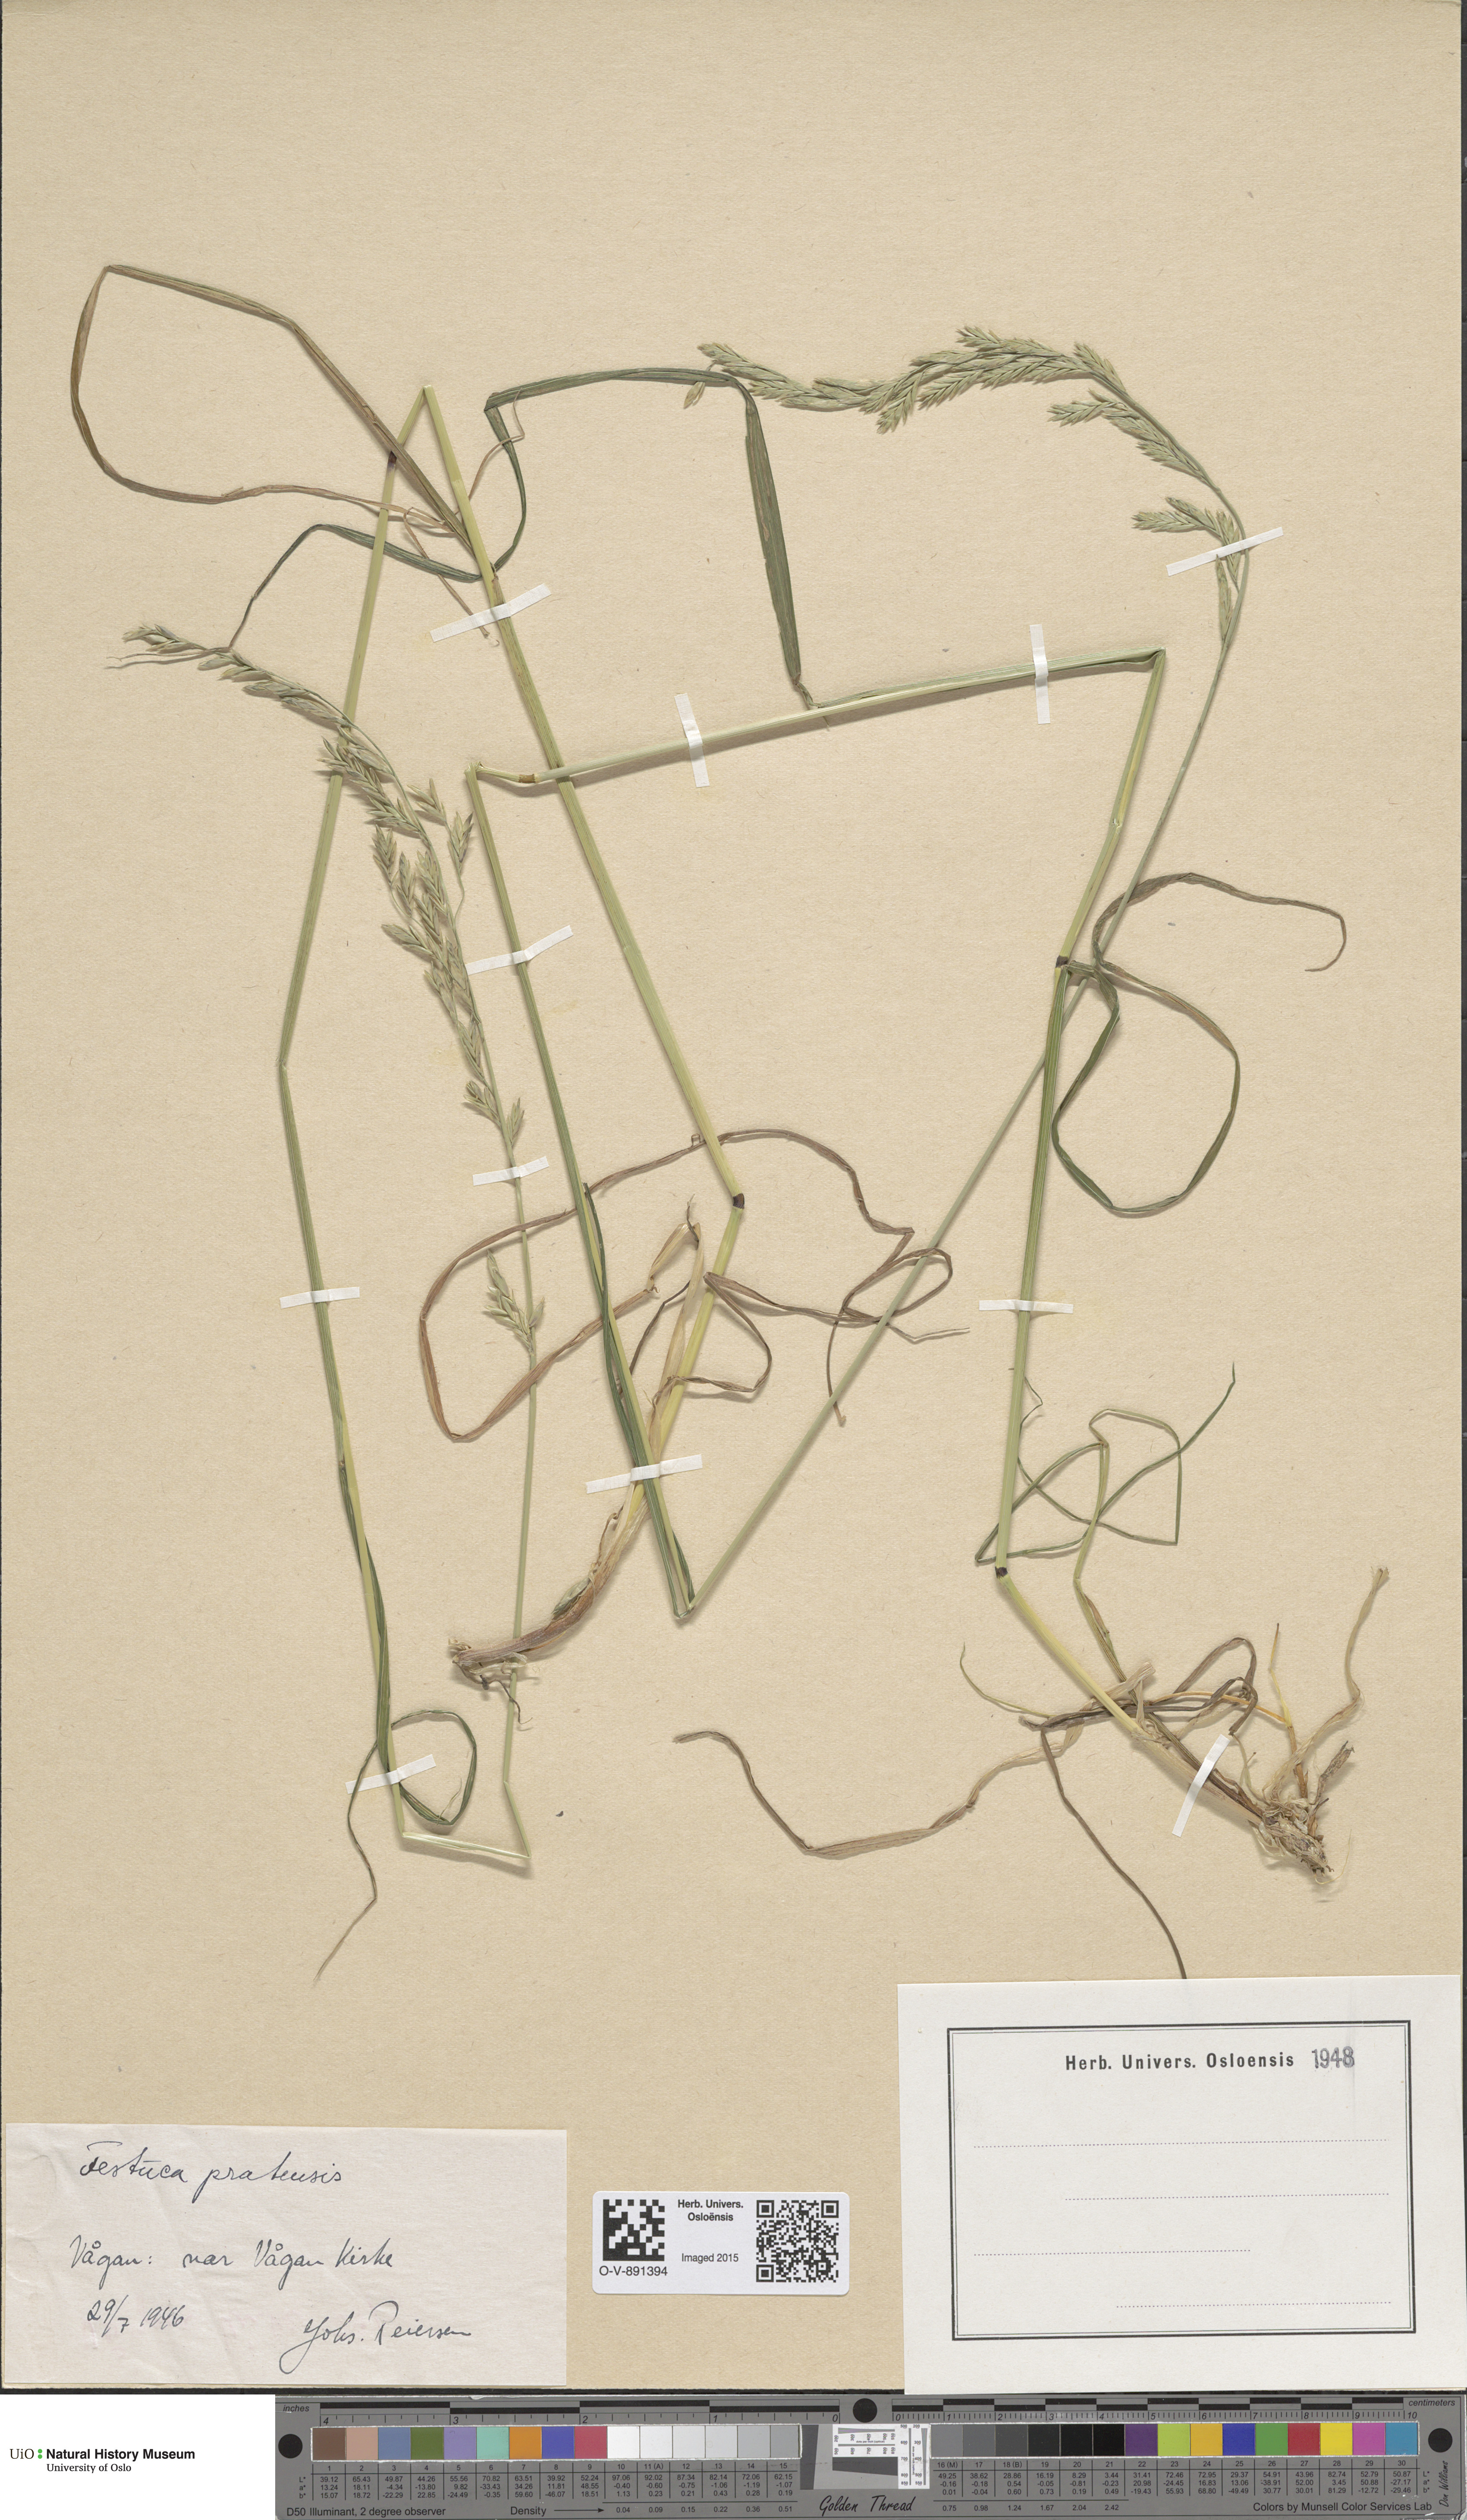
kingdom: Plantae
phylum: Tracheophyta
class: Liliopsida
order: Poales
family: Poaceae
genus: Lolium
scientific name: Lolium pratense
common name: Dover grass
